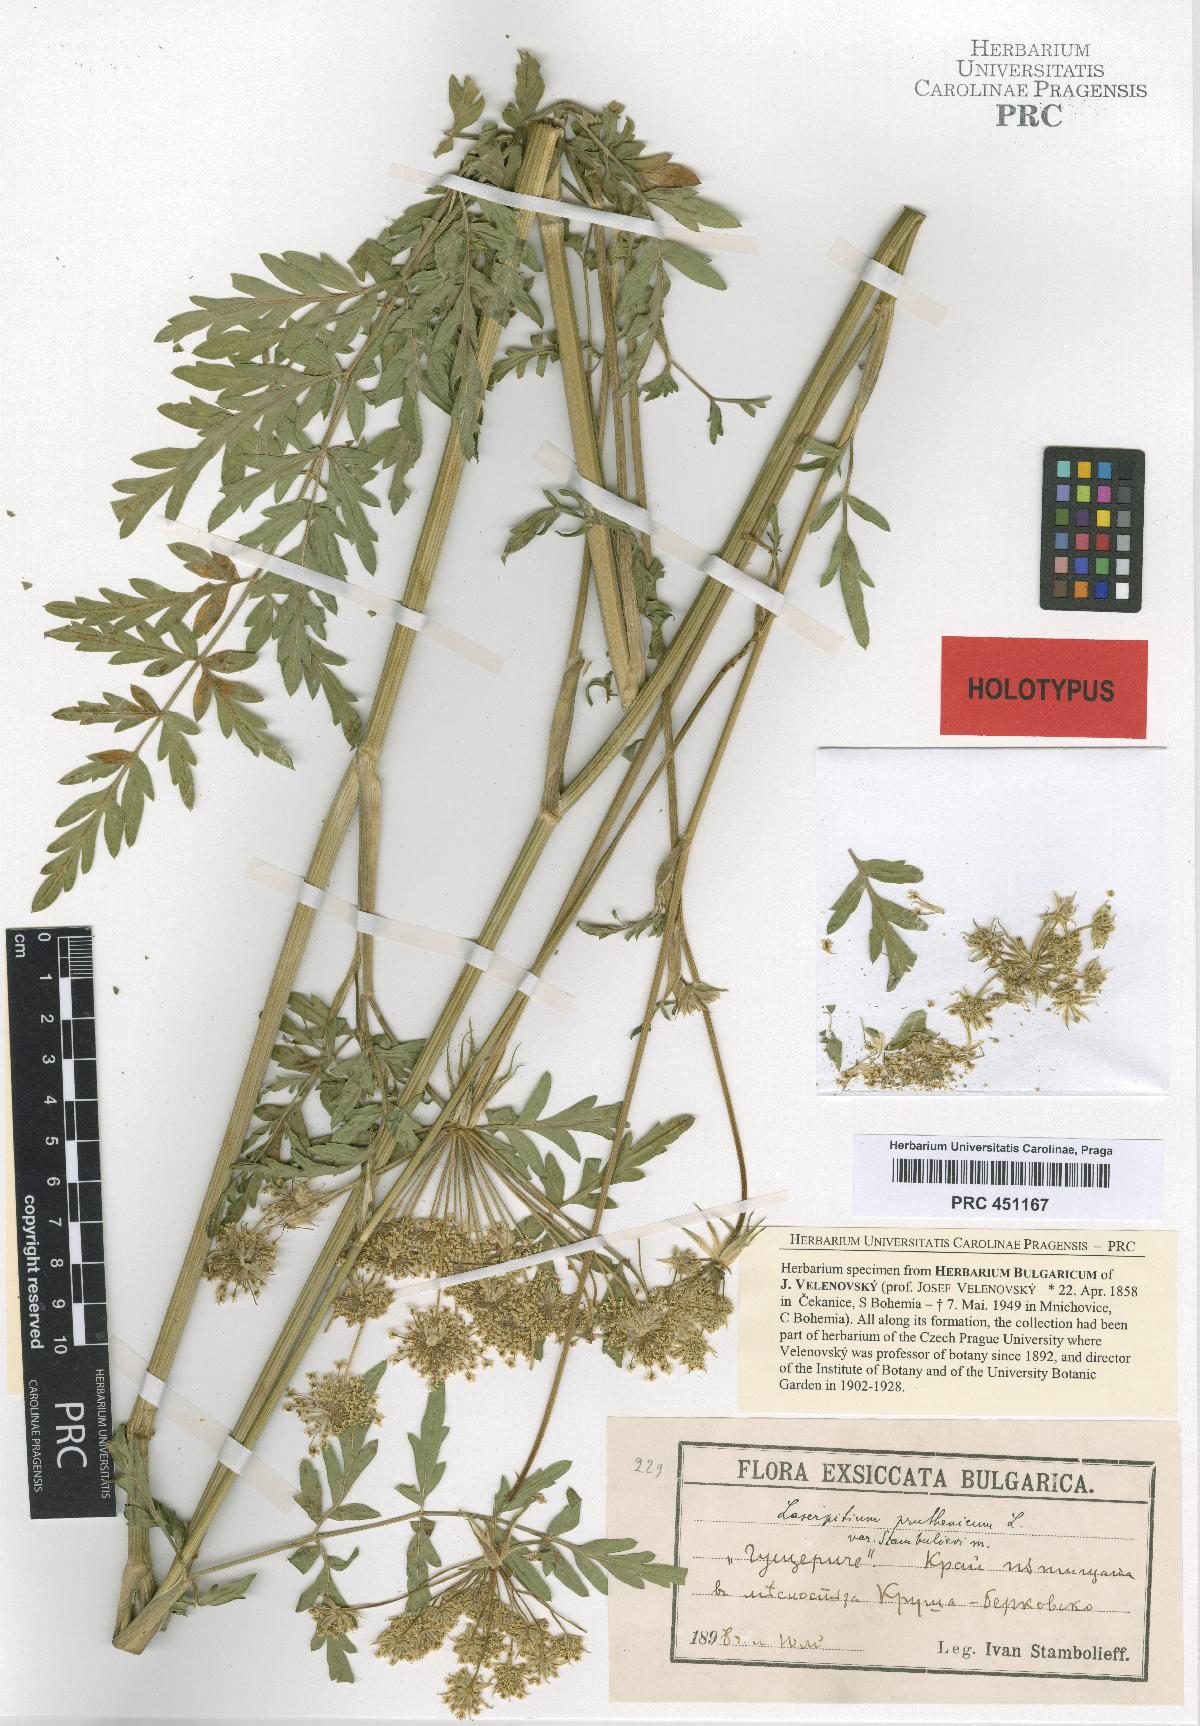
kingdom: Plantae
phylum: Tracheophyta
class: Magnoliopsida
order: Apiales
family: Apiaceae
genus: Silphiodaucus
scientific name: Silphiodaucus prutenicus
